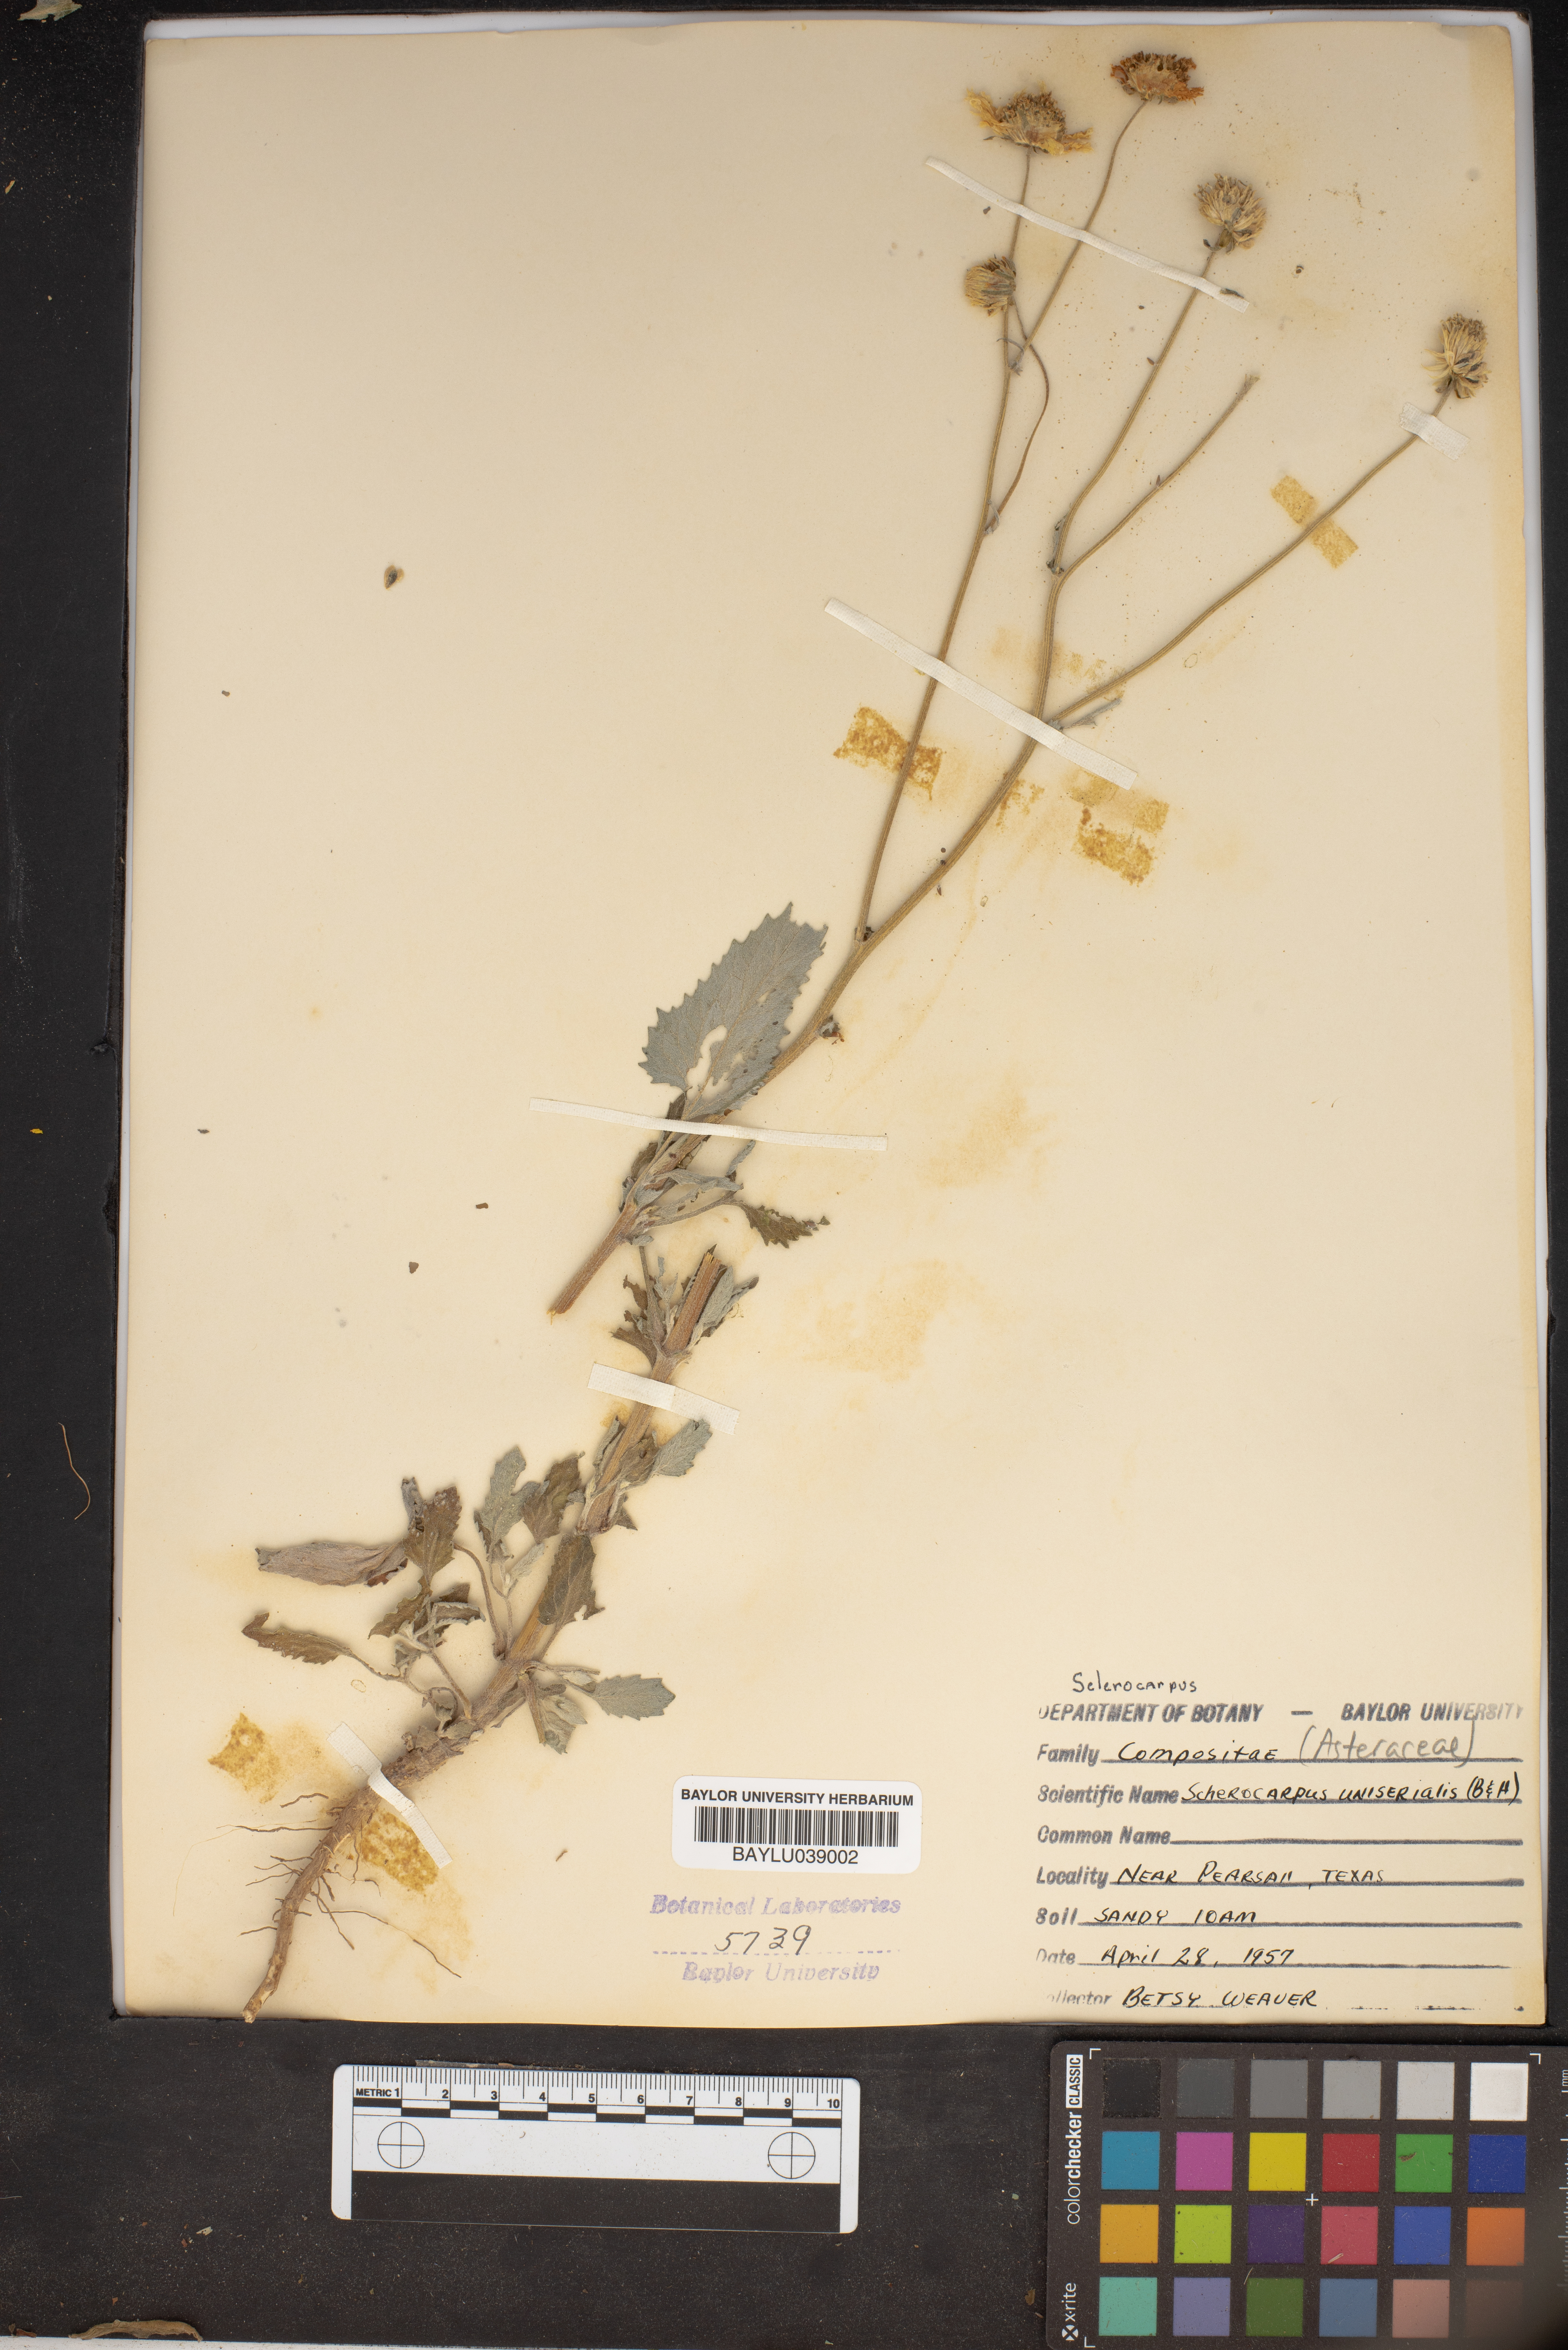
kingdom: Plantae
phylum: Tracheophyta
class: Magnoliopsida
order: Asterales
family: Asteraceae
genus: Sclerocarpus
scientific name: Sclerocarpus uniserialis
